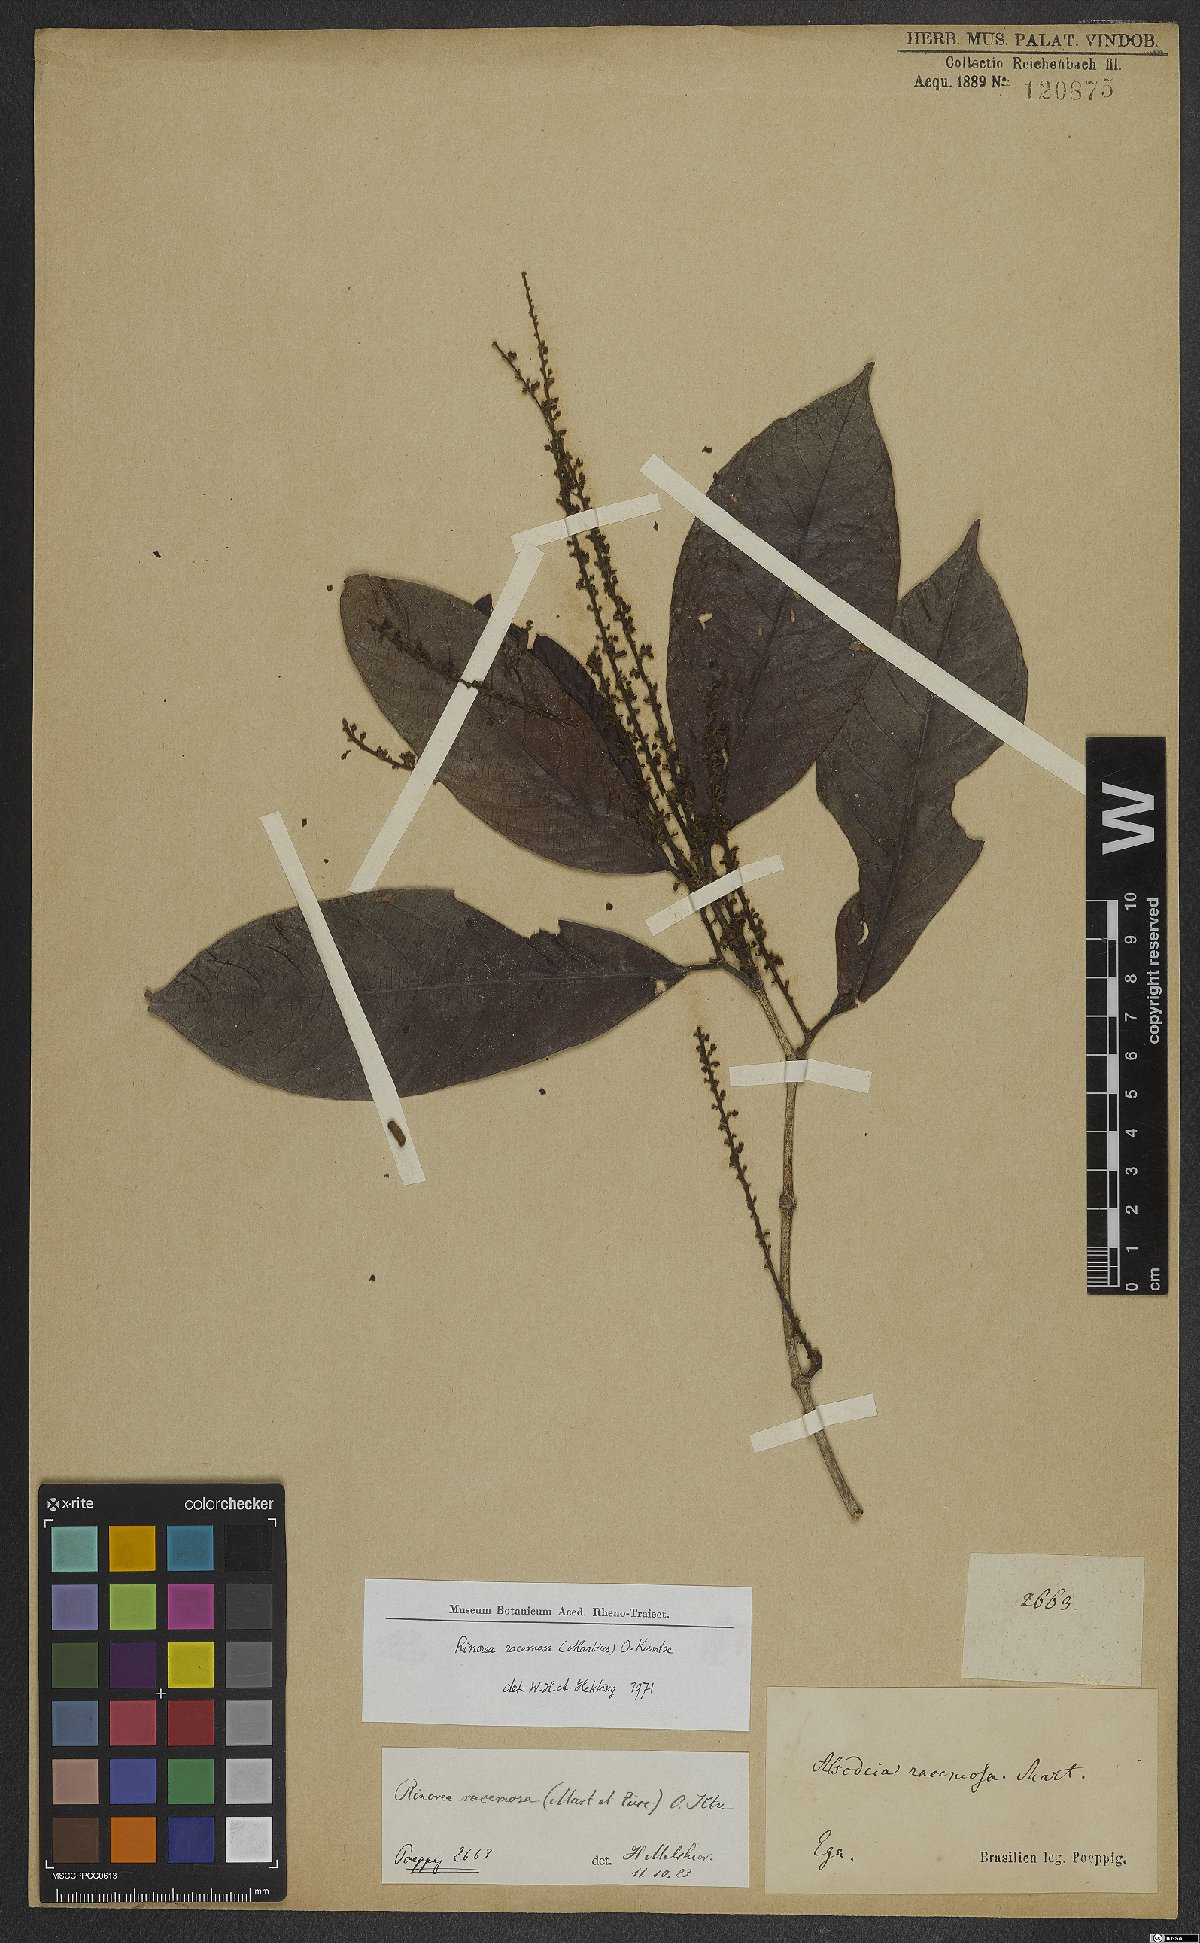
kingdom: Plantae
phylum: Tracheophyta
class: Magnoliopsida
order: Malpighiales
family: Violaceae
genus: Rinorea
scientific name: Rinorea racemosa
